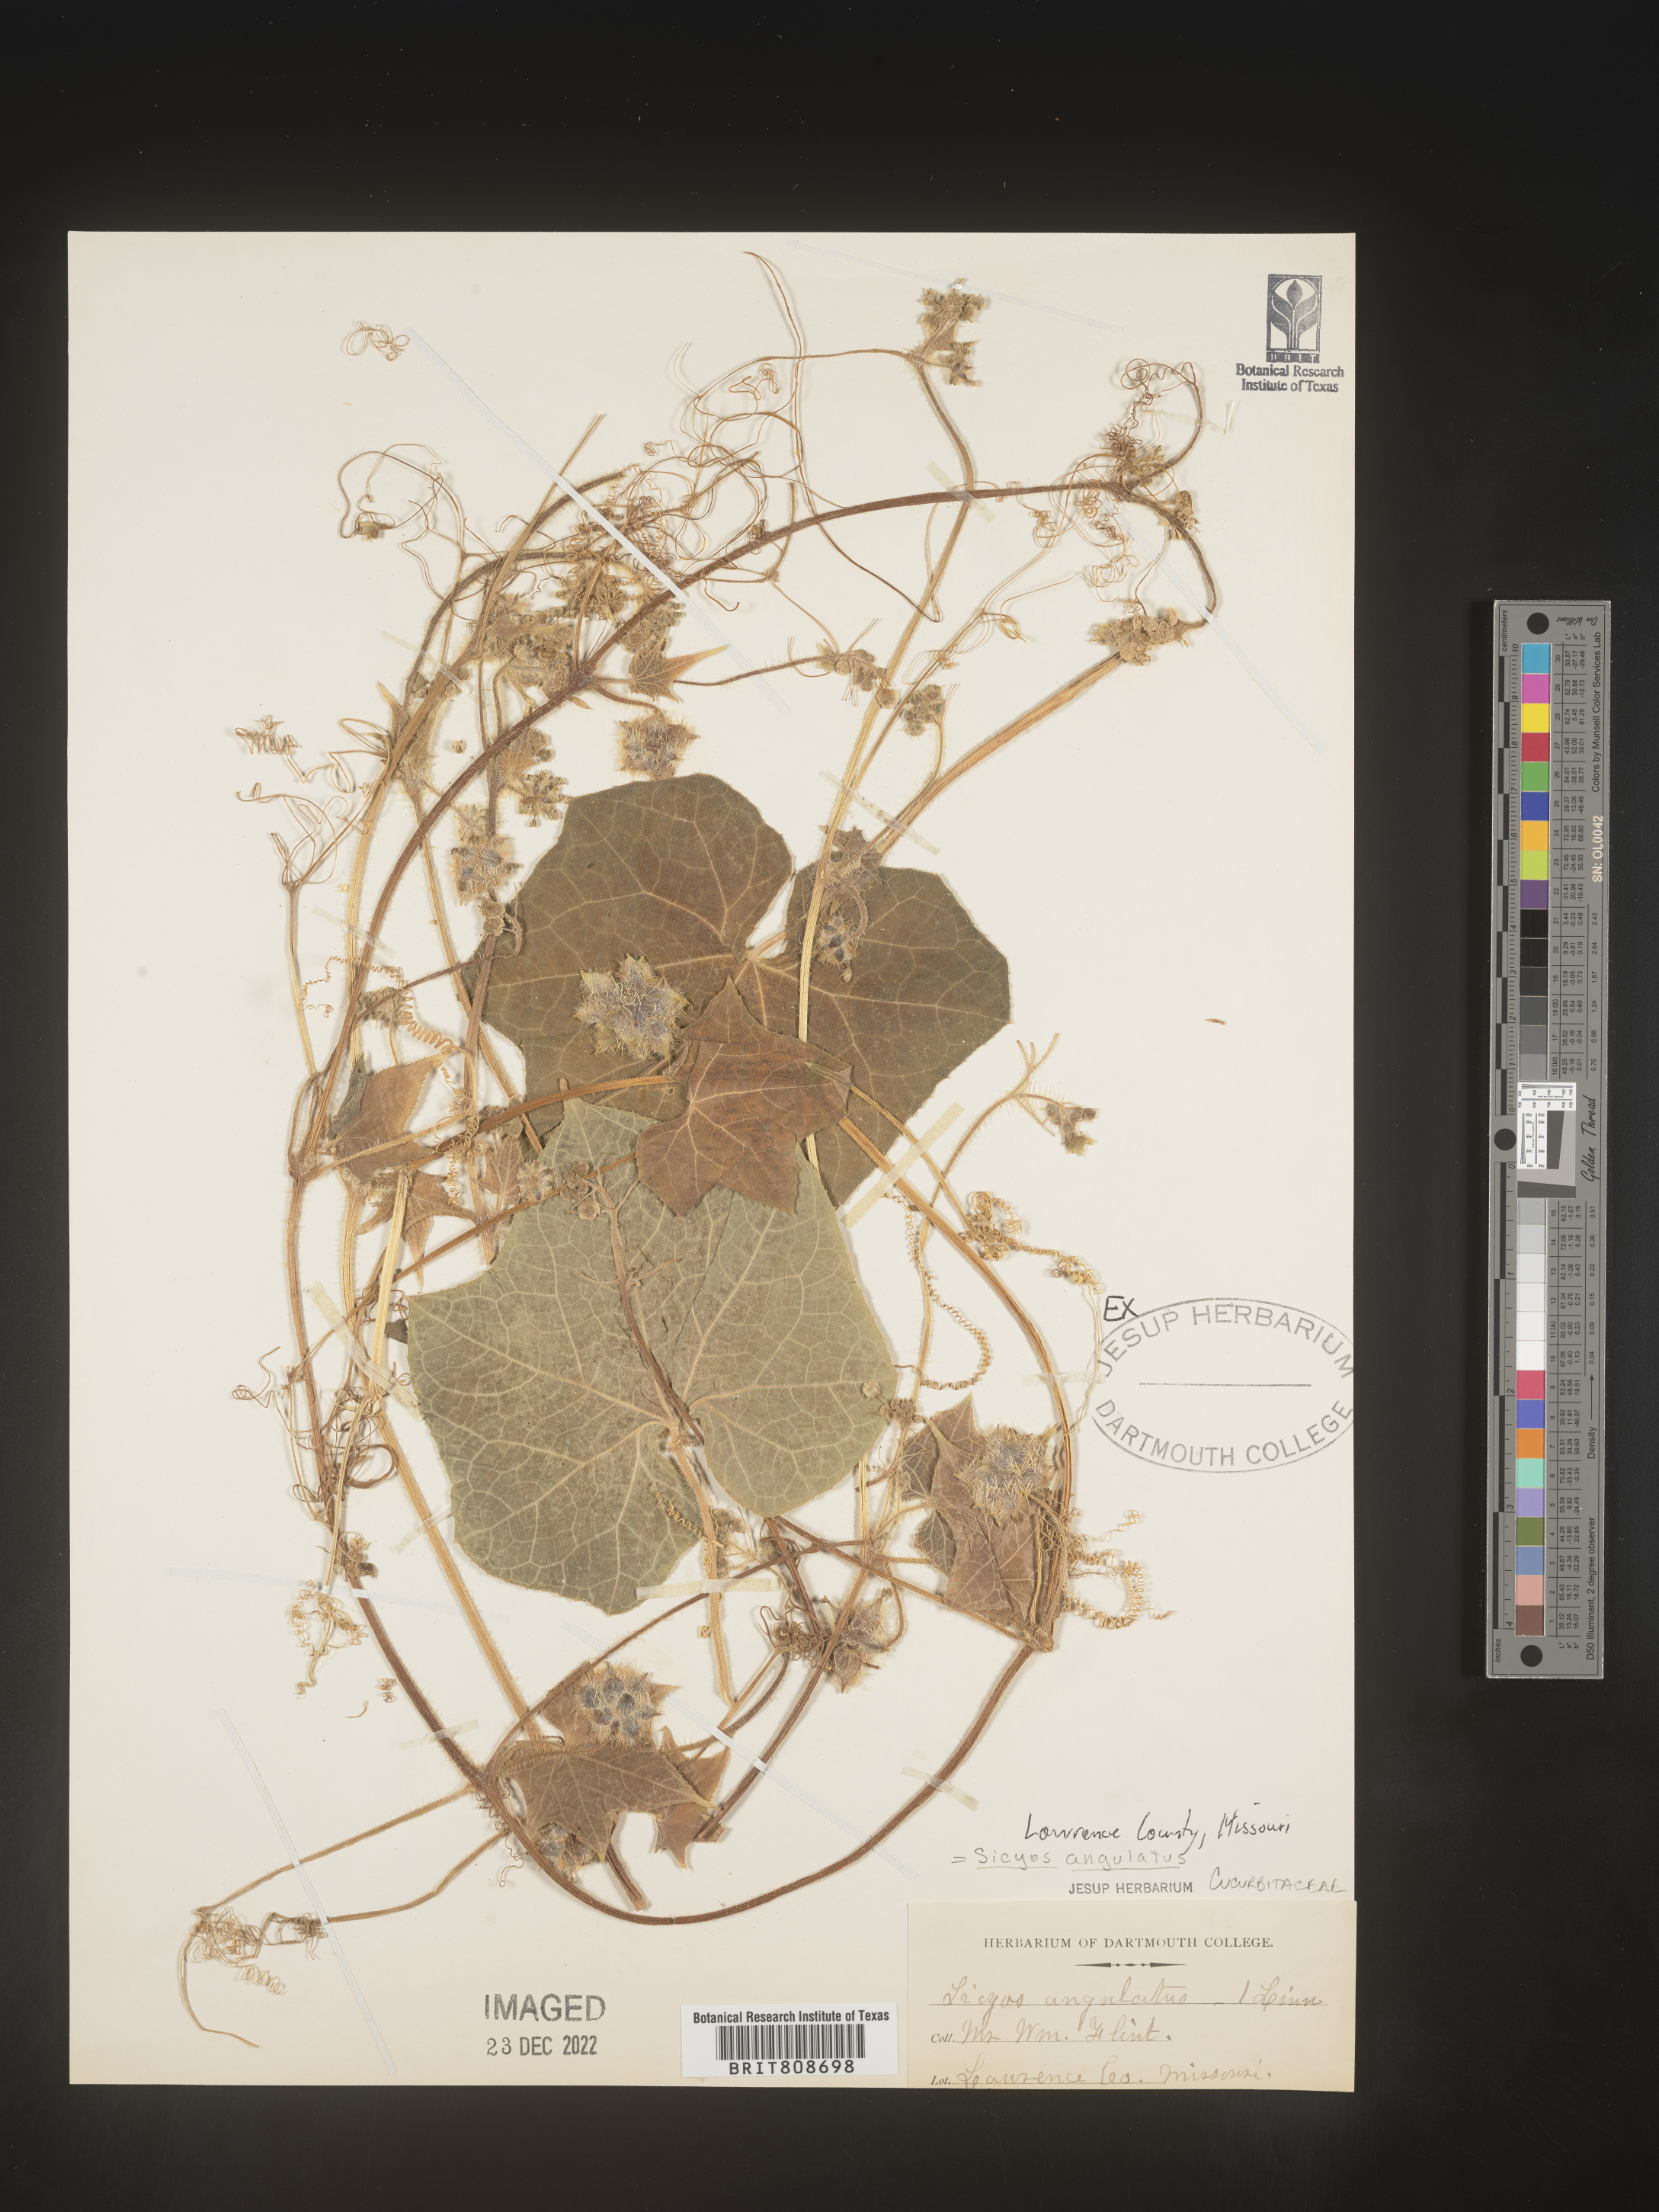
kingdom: Plantae
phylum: Tracheophyta
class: Magnoliopsida
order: Cucurbitales
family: Cucurbitaceae
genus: Sicyos
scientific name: Sicyos angulatus
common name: Angled burr cucumber
